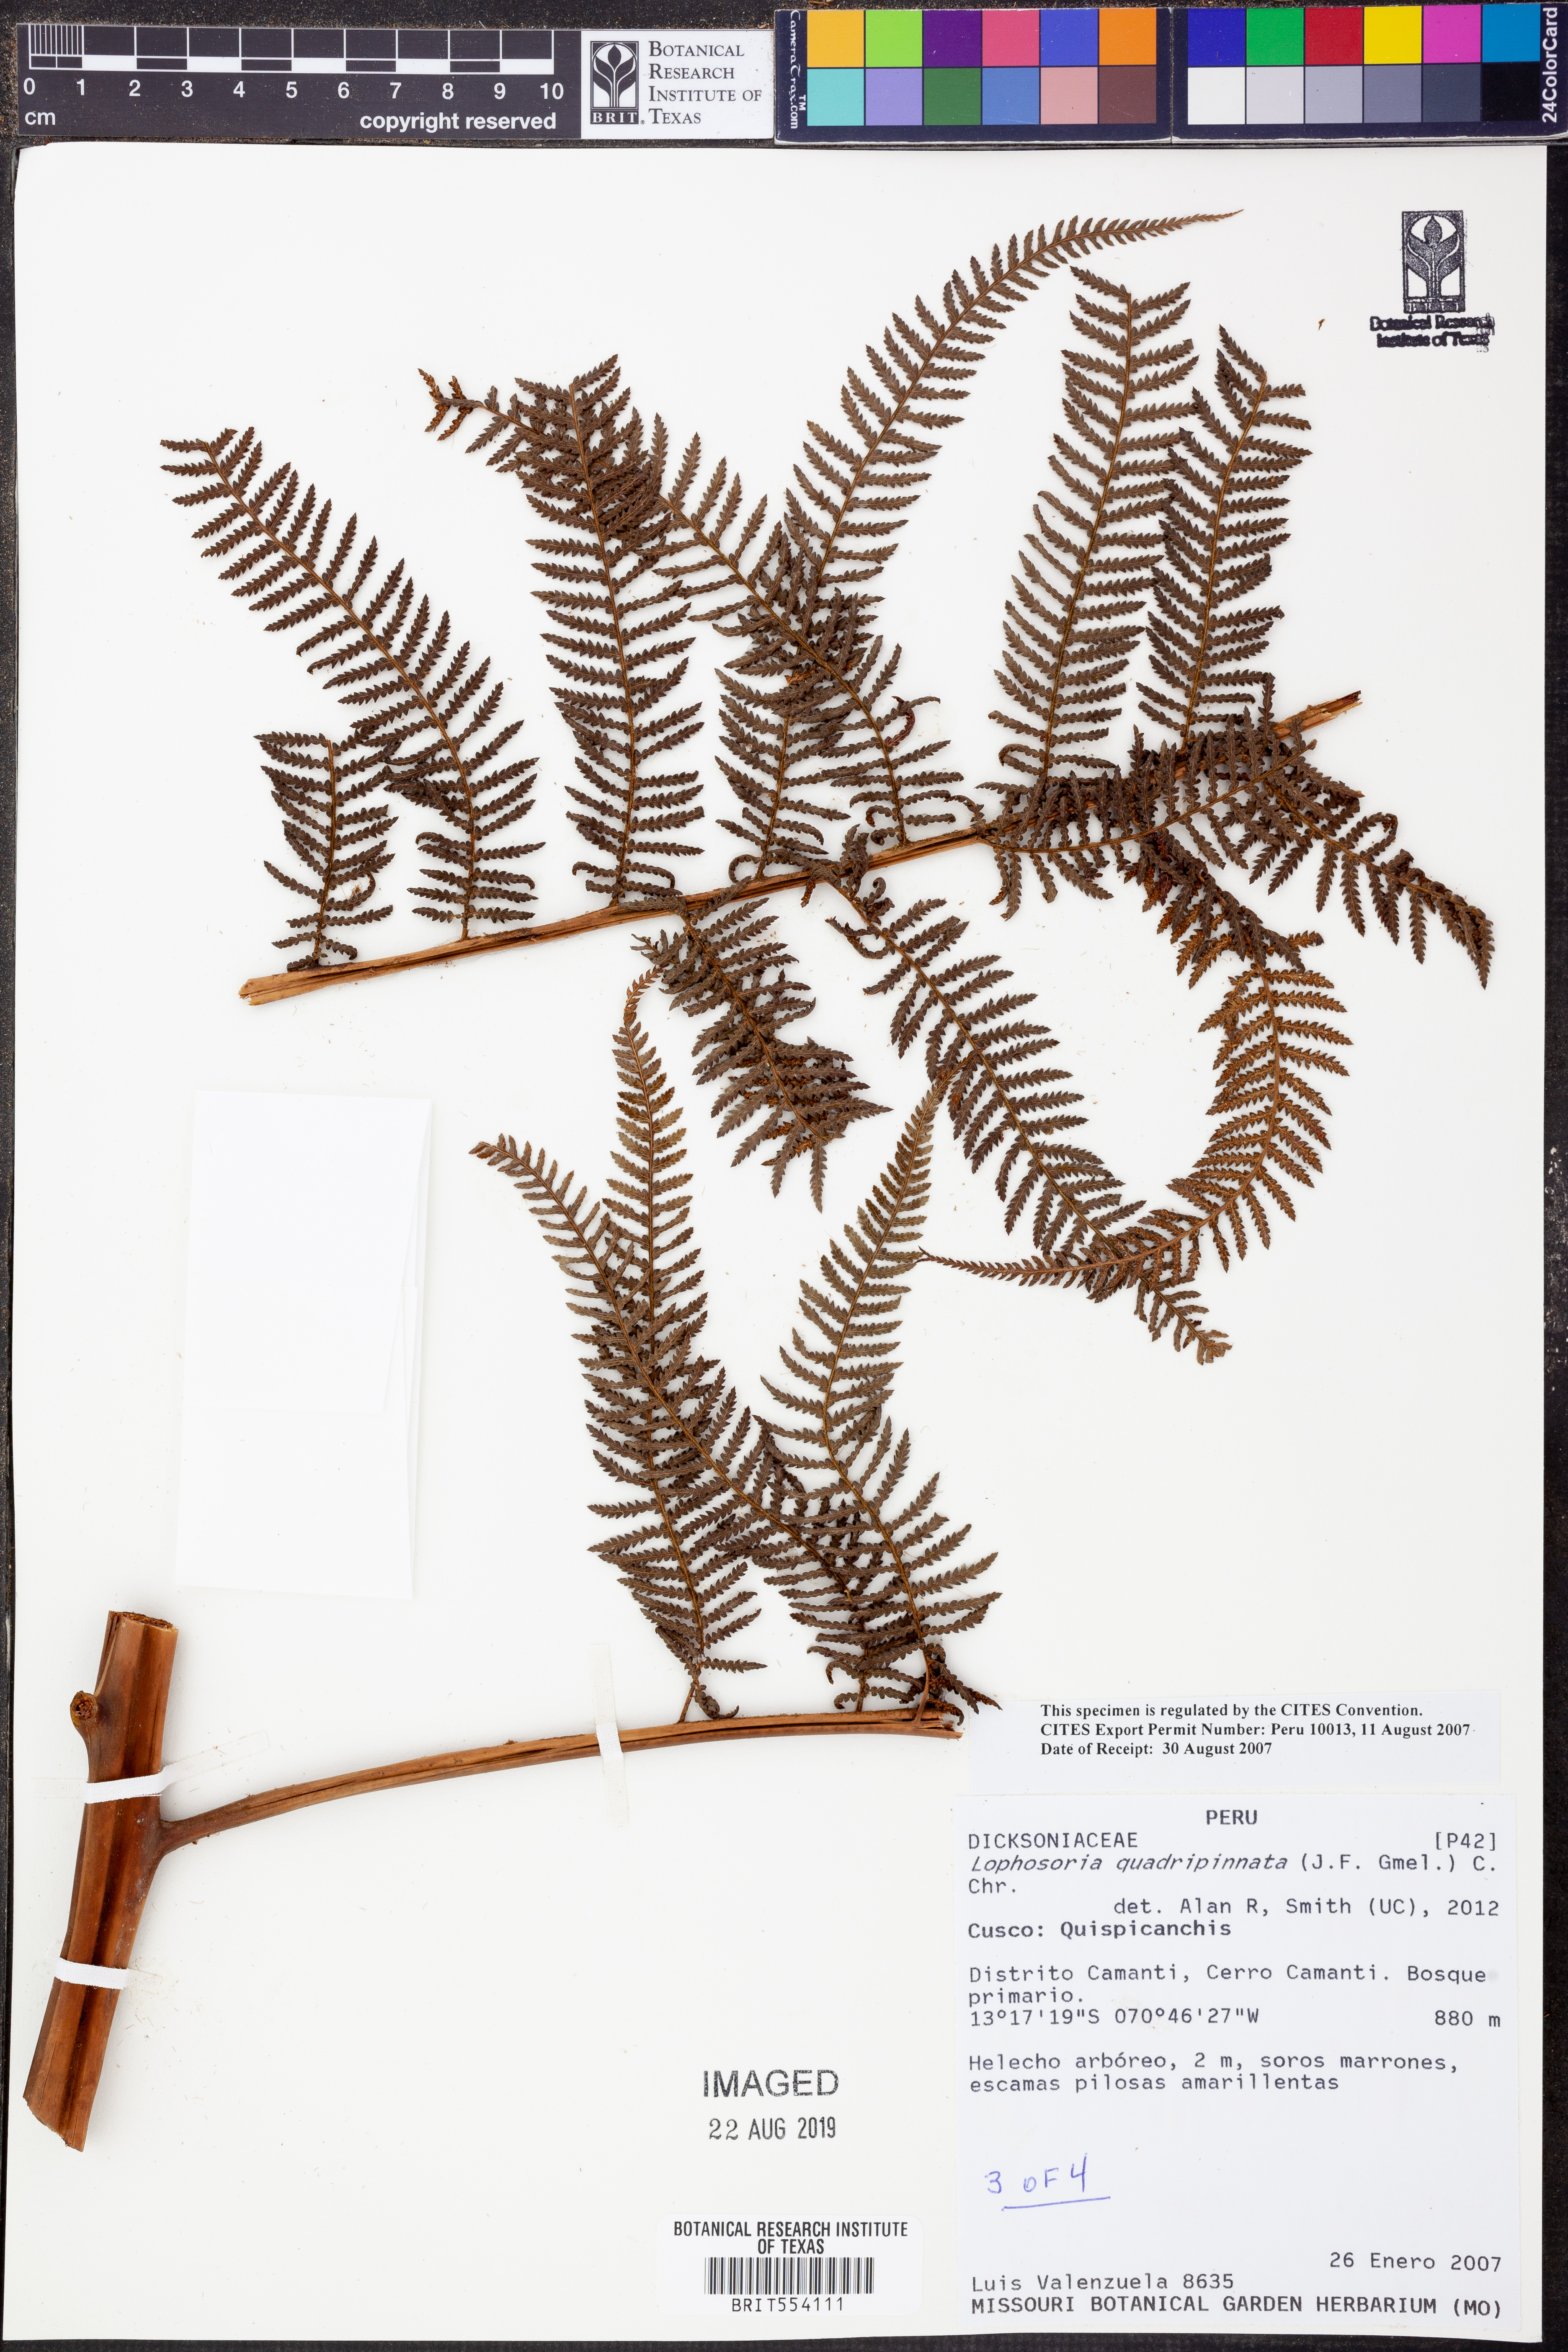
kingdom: Plantae
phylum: Tracheophyta
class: Polypodiopsida
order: Cyatheales
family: Dicksoniaceae
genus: Lophosoria
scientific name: Lophosoria quadripinnata
